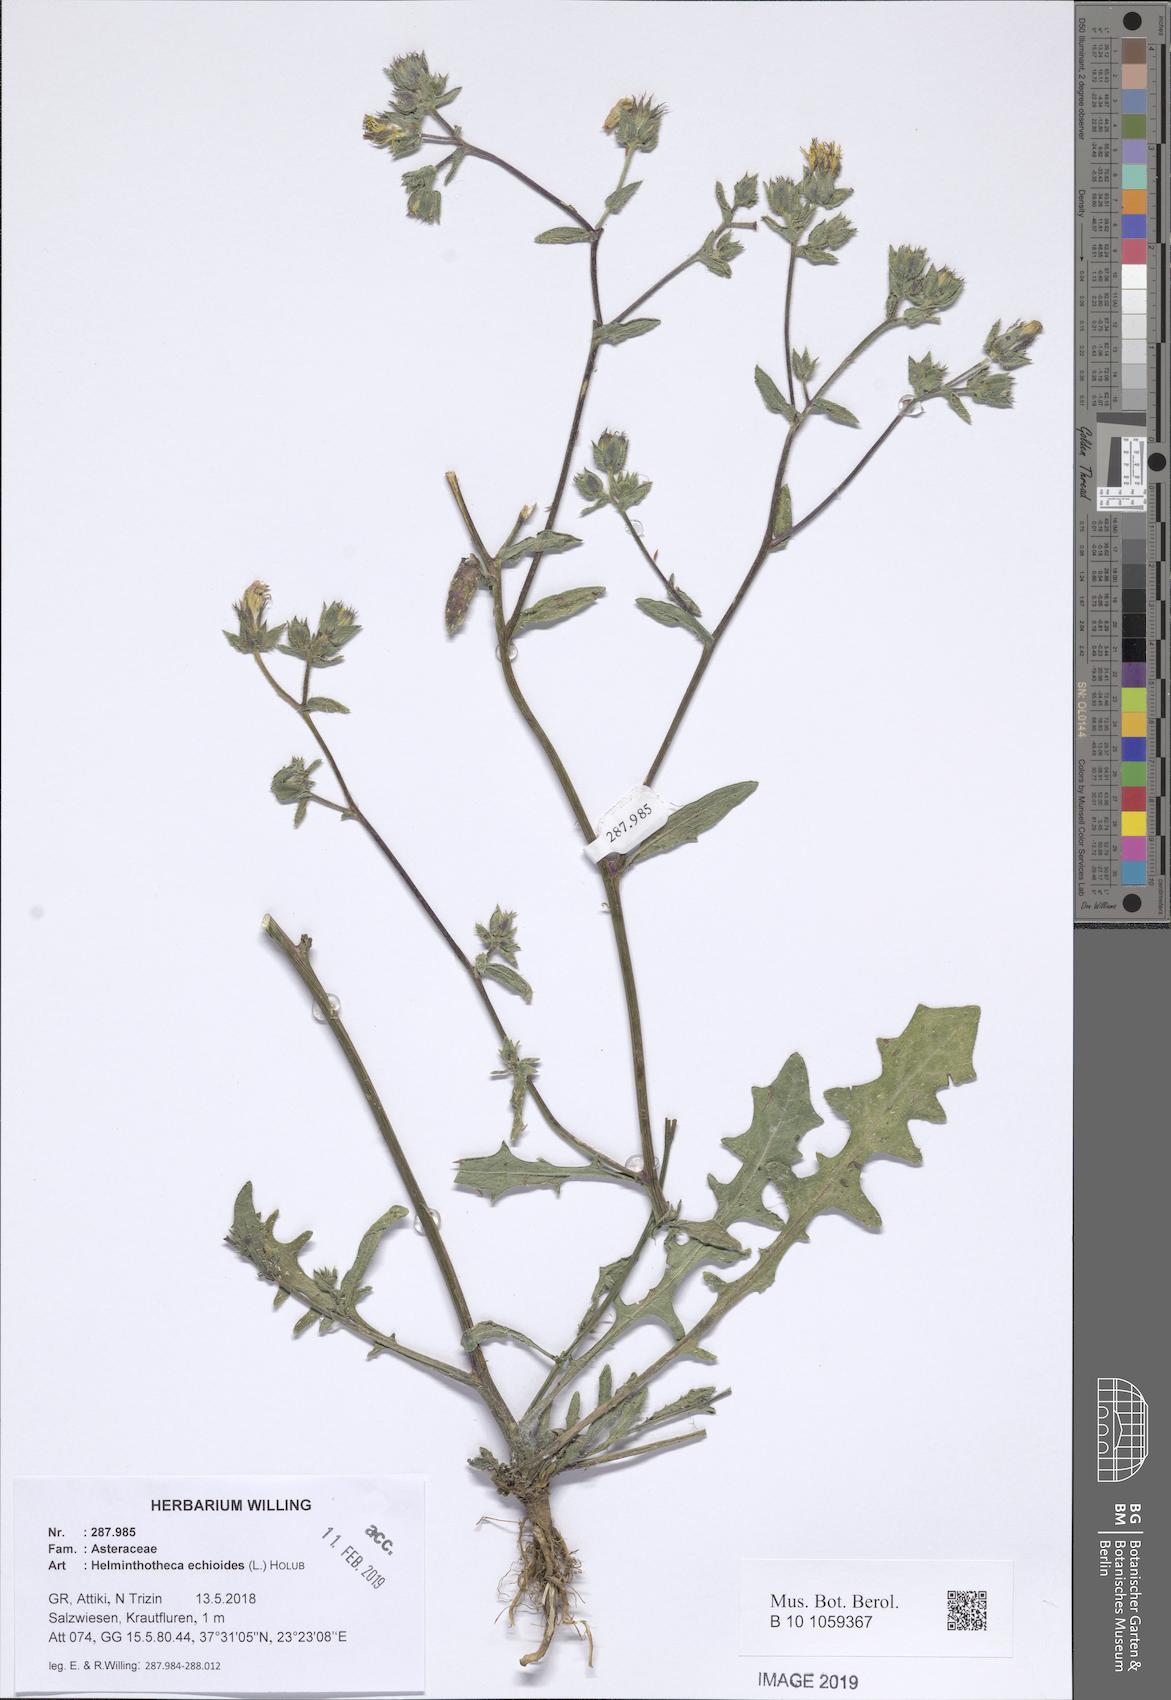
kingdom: Plantae
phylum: Tracheophyta
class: Magnoliopsida
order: Asterales
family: Asteraceae
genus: Helminthotheca
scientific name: Helminthotheca echioides
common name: Ox-tongue
